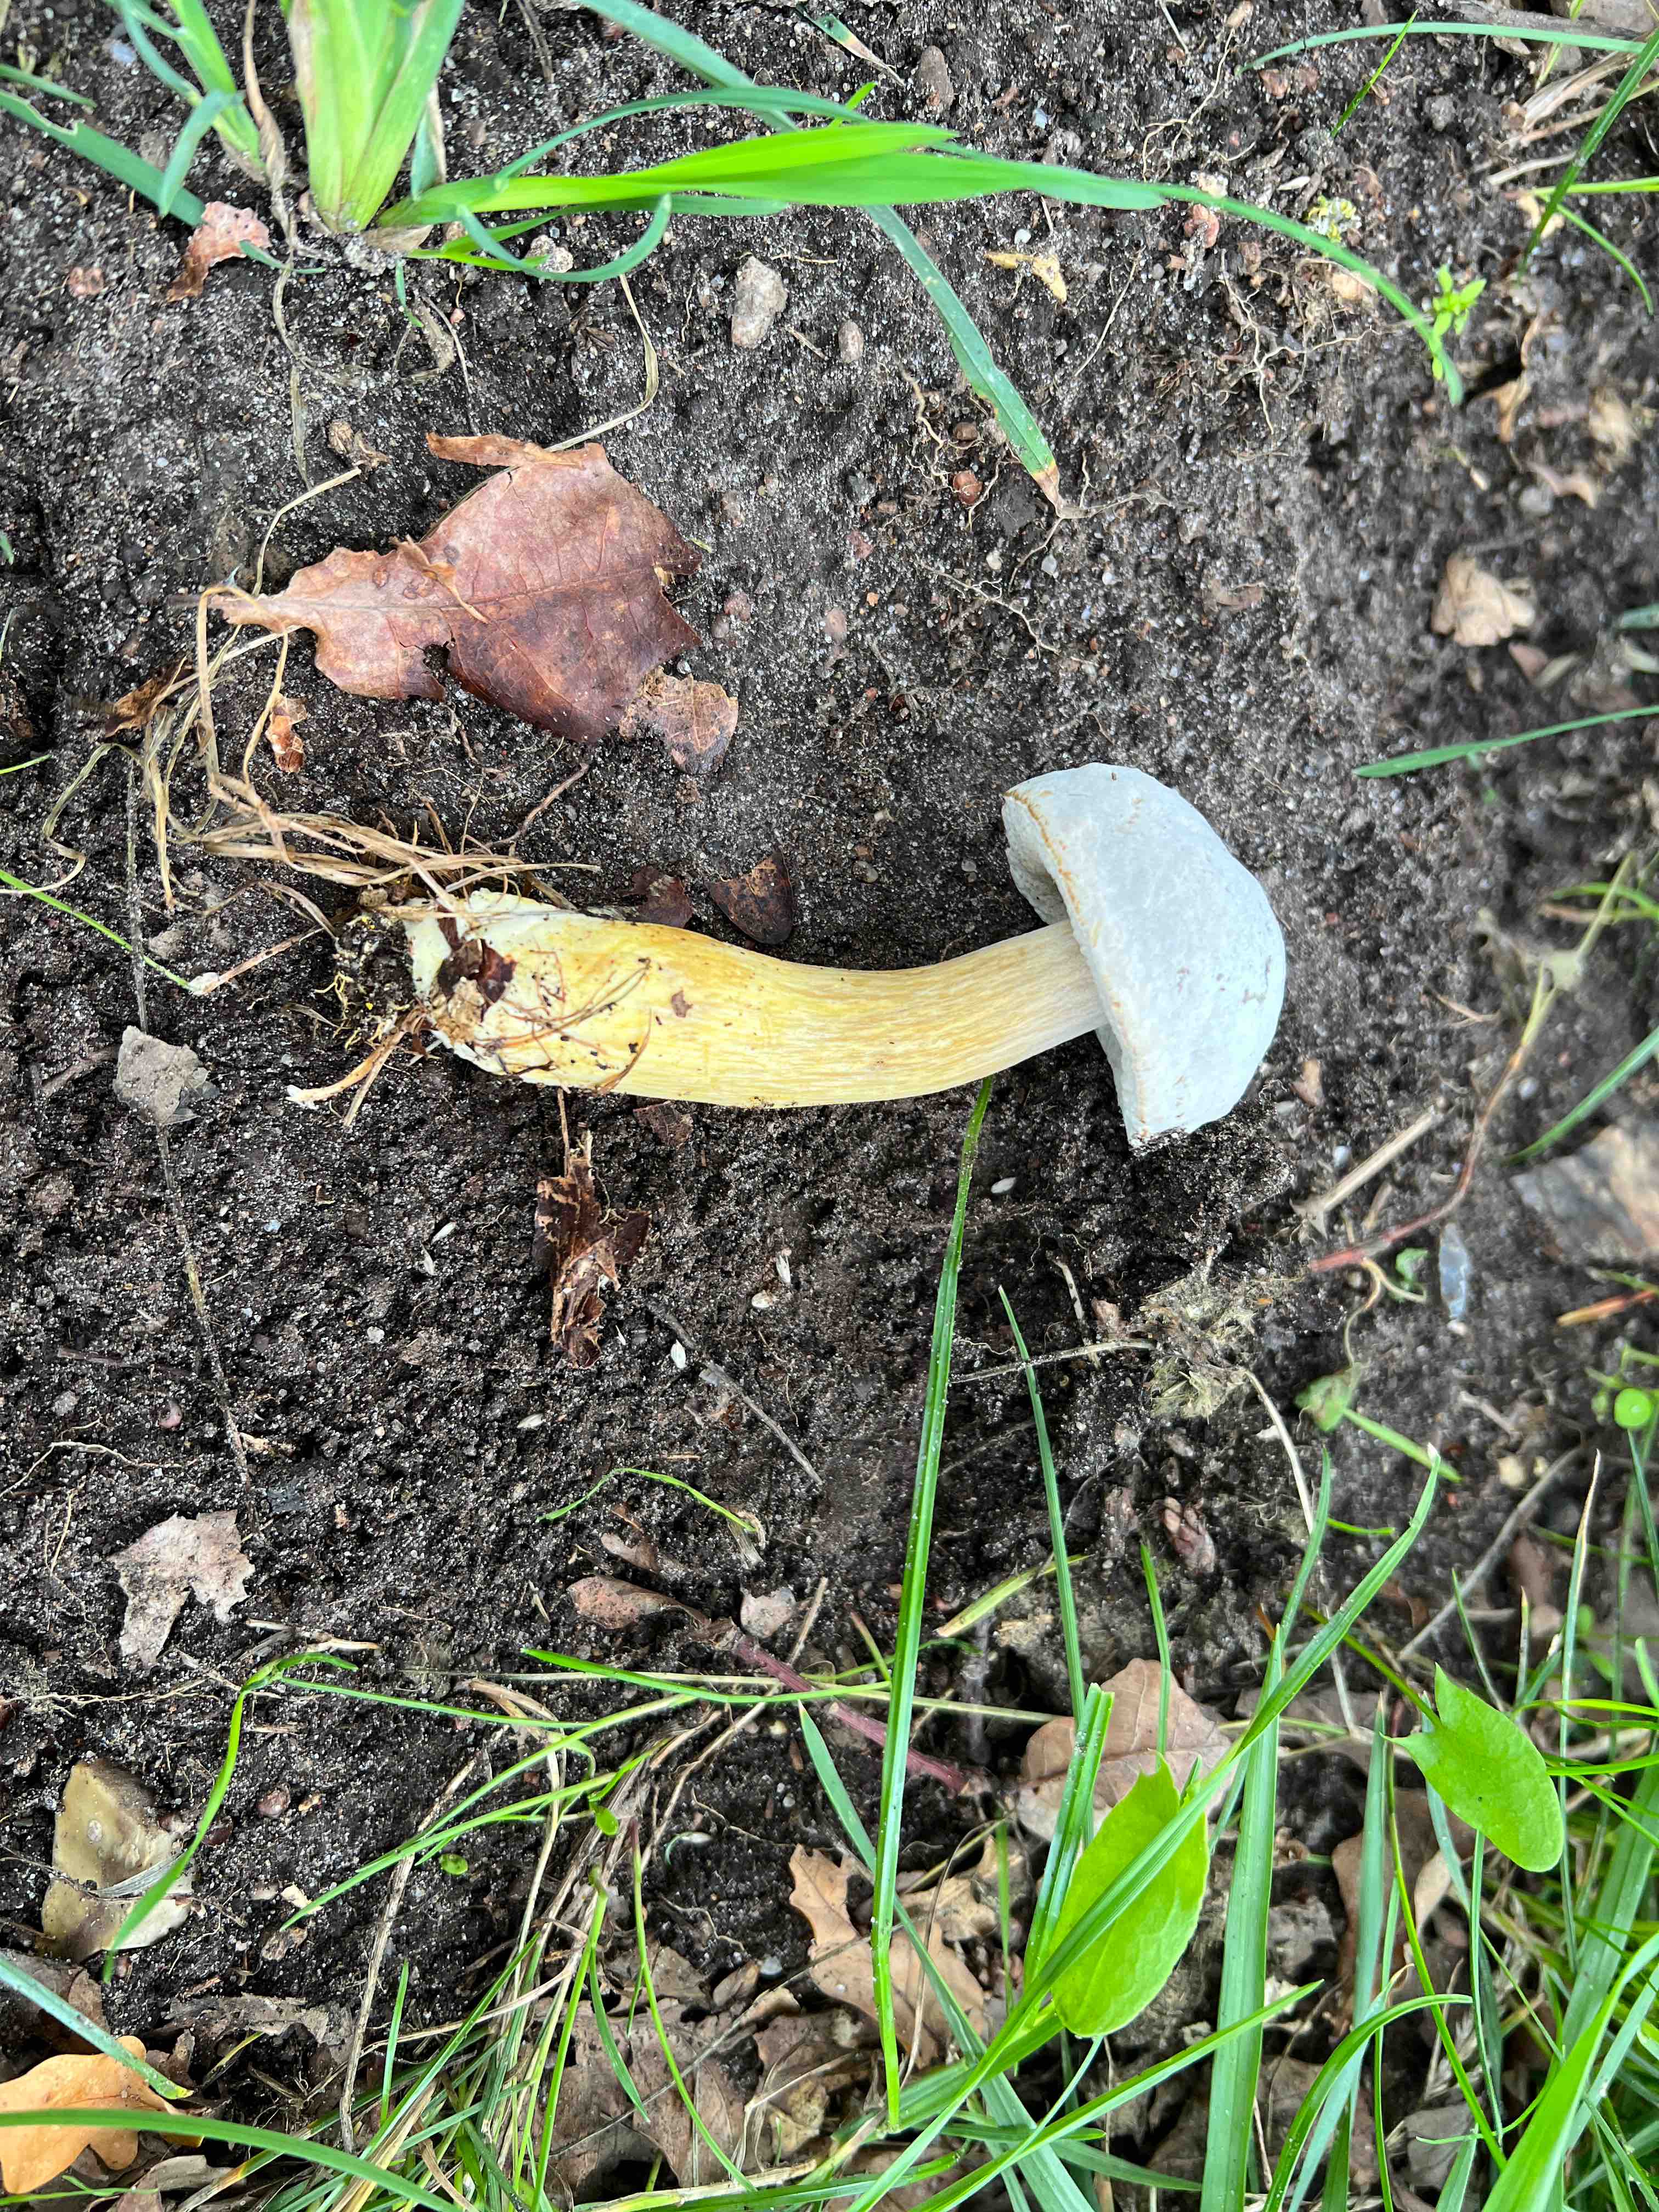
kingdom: Fungi
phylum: Ascomycota
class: Sordariomycetes
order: Hypocreales
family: Hypocreaceae
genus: Hypomyces
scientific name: Hypomyces microspermus
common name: dværgrørhat-snylteskorpe
